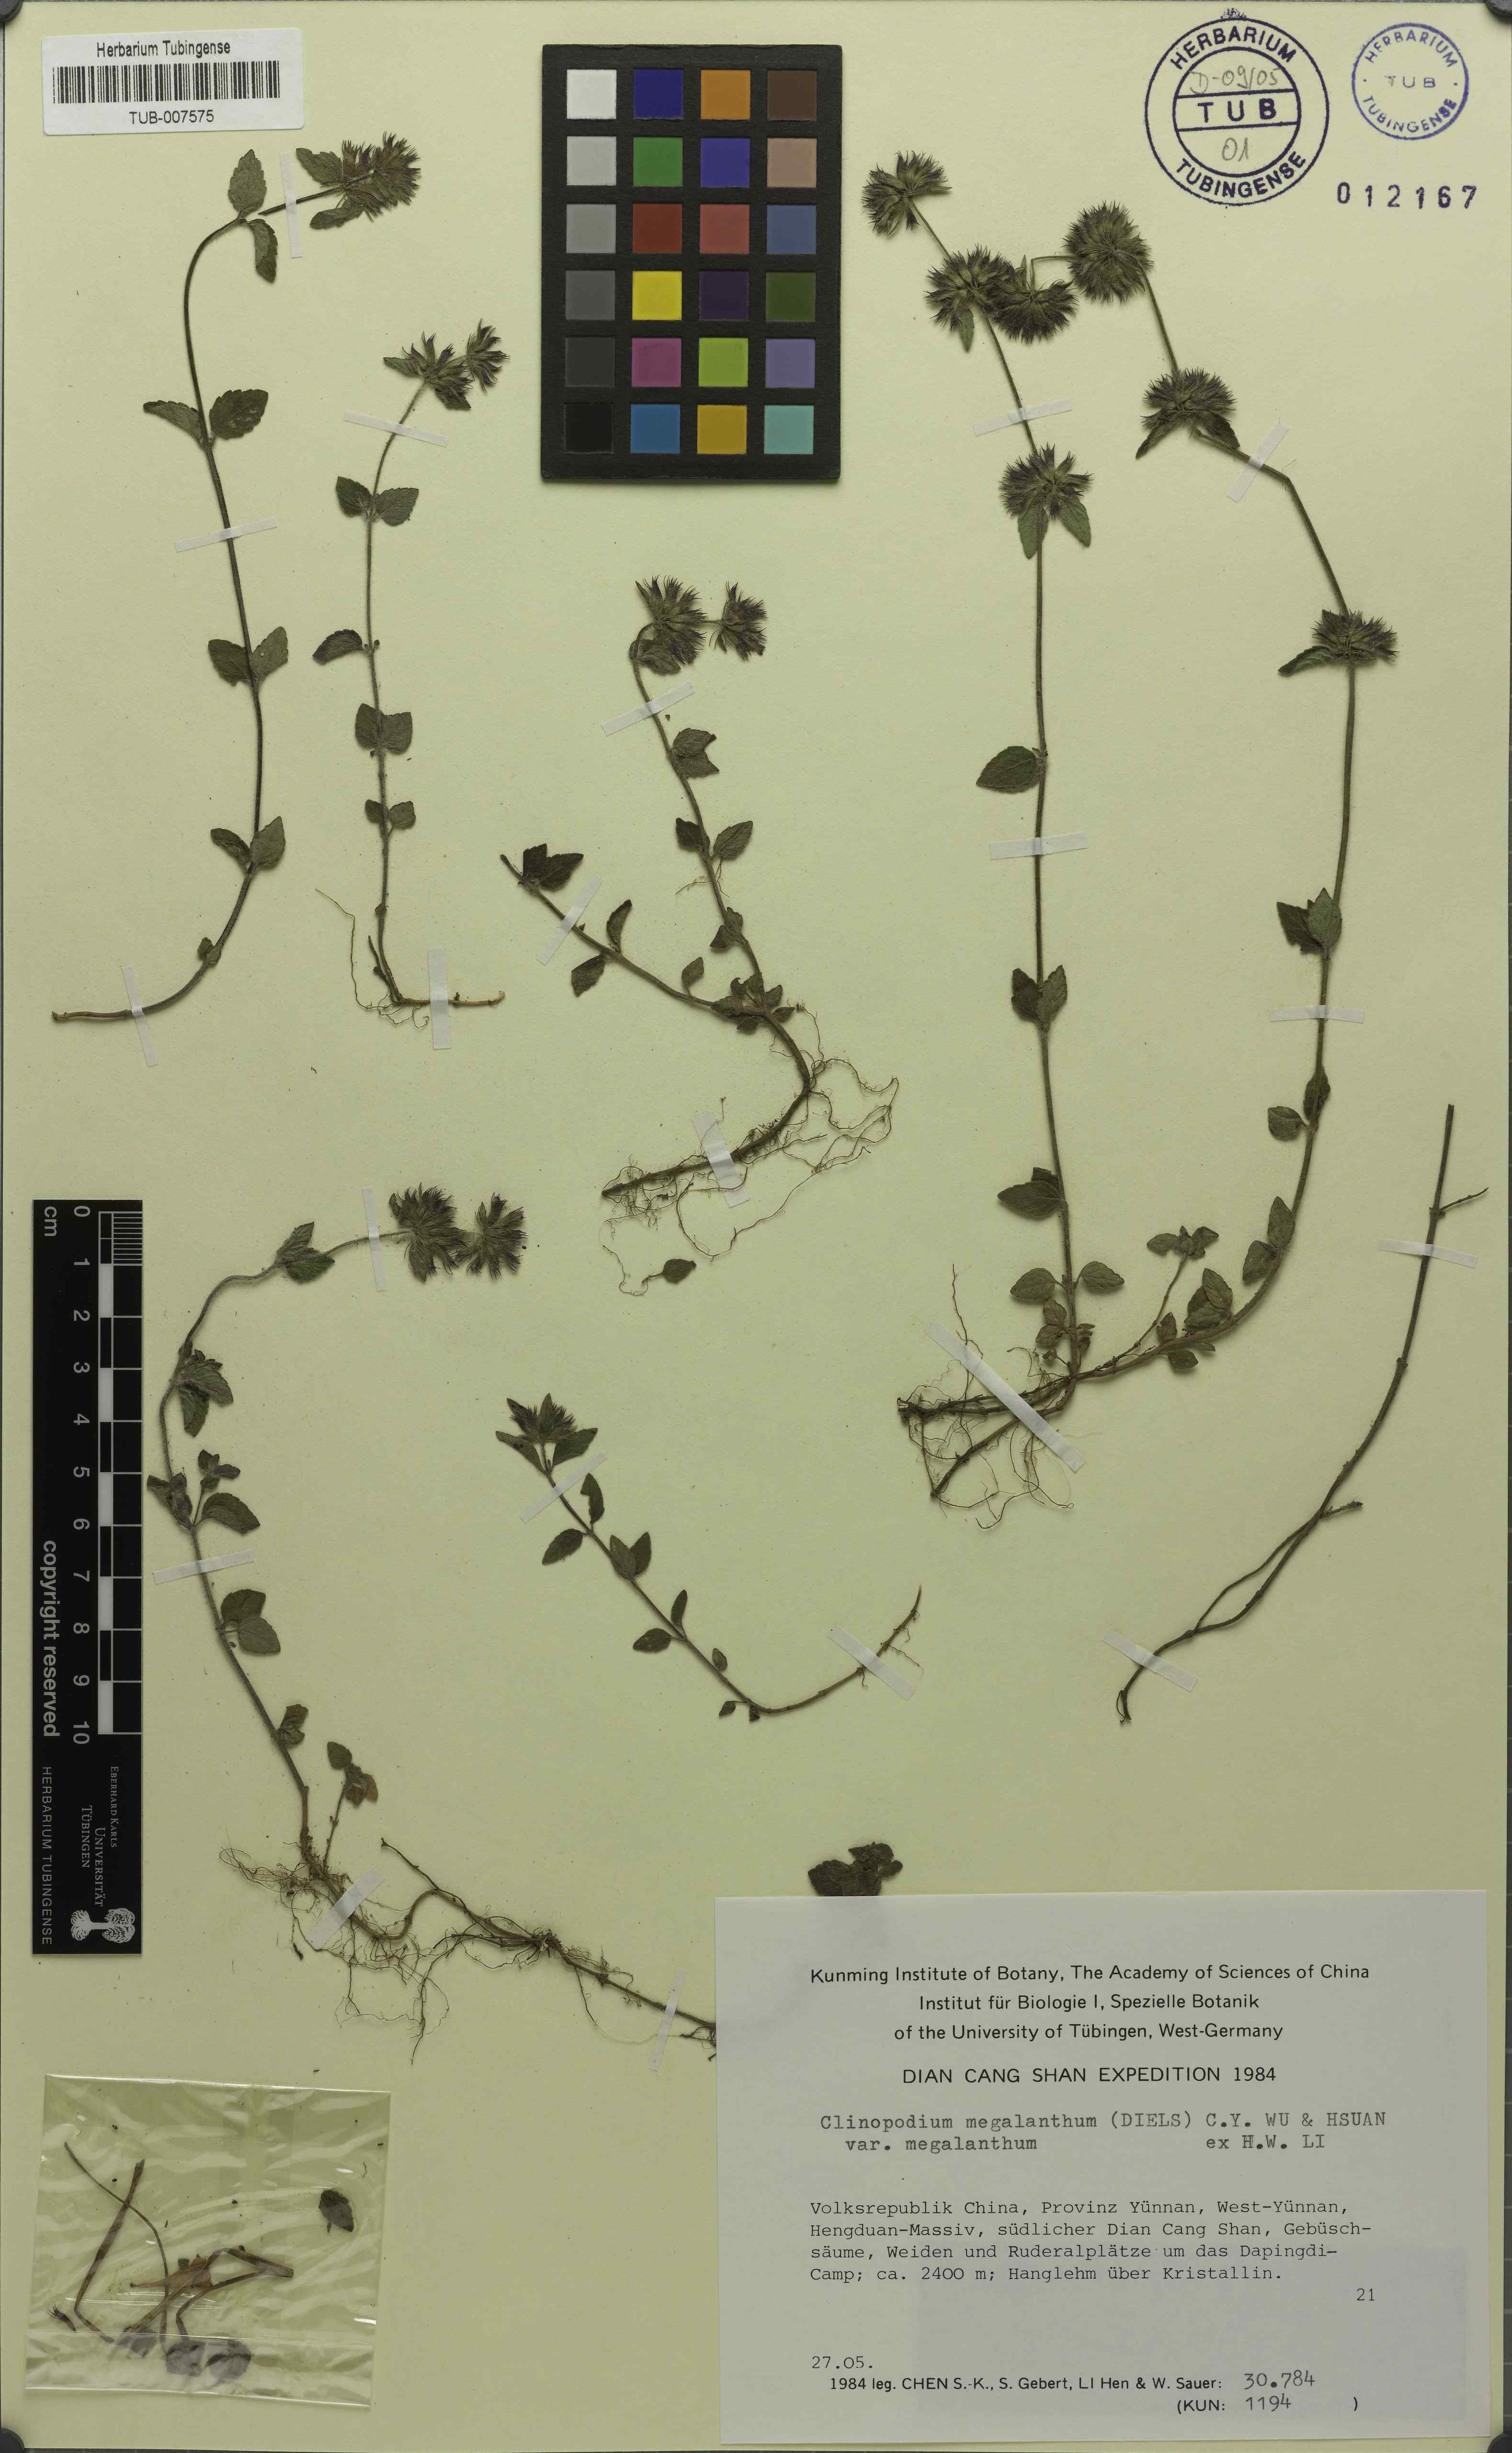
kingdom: Plantae
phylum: Tracheophyta
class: Magnoliopsida
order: Lamiales
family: Lamiaceae
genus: Clinopodium
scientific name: Clinopodium megalanthum
